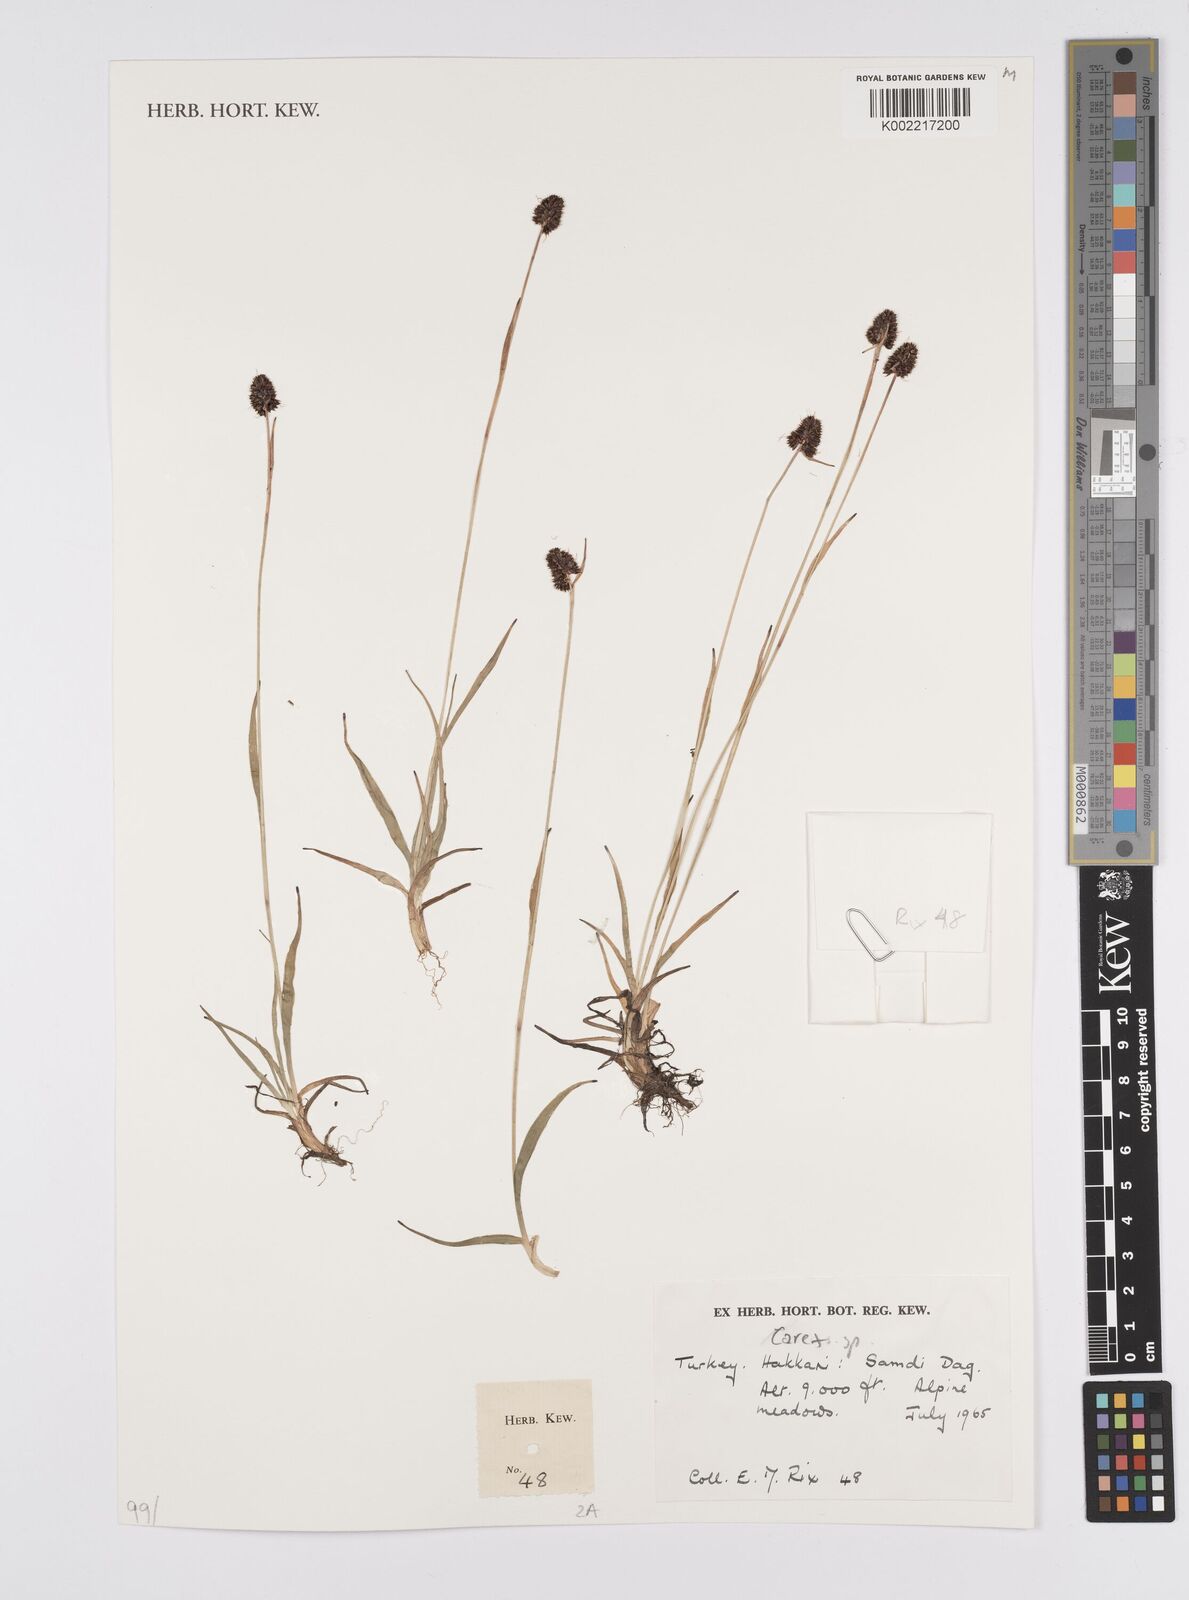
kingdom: Plantae
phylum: Tracheophyta
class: Liliopsida
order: Poales
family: Cyperaceae
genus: Carex
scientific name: Carex
